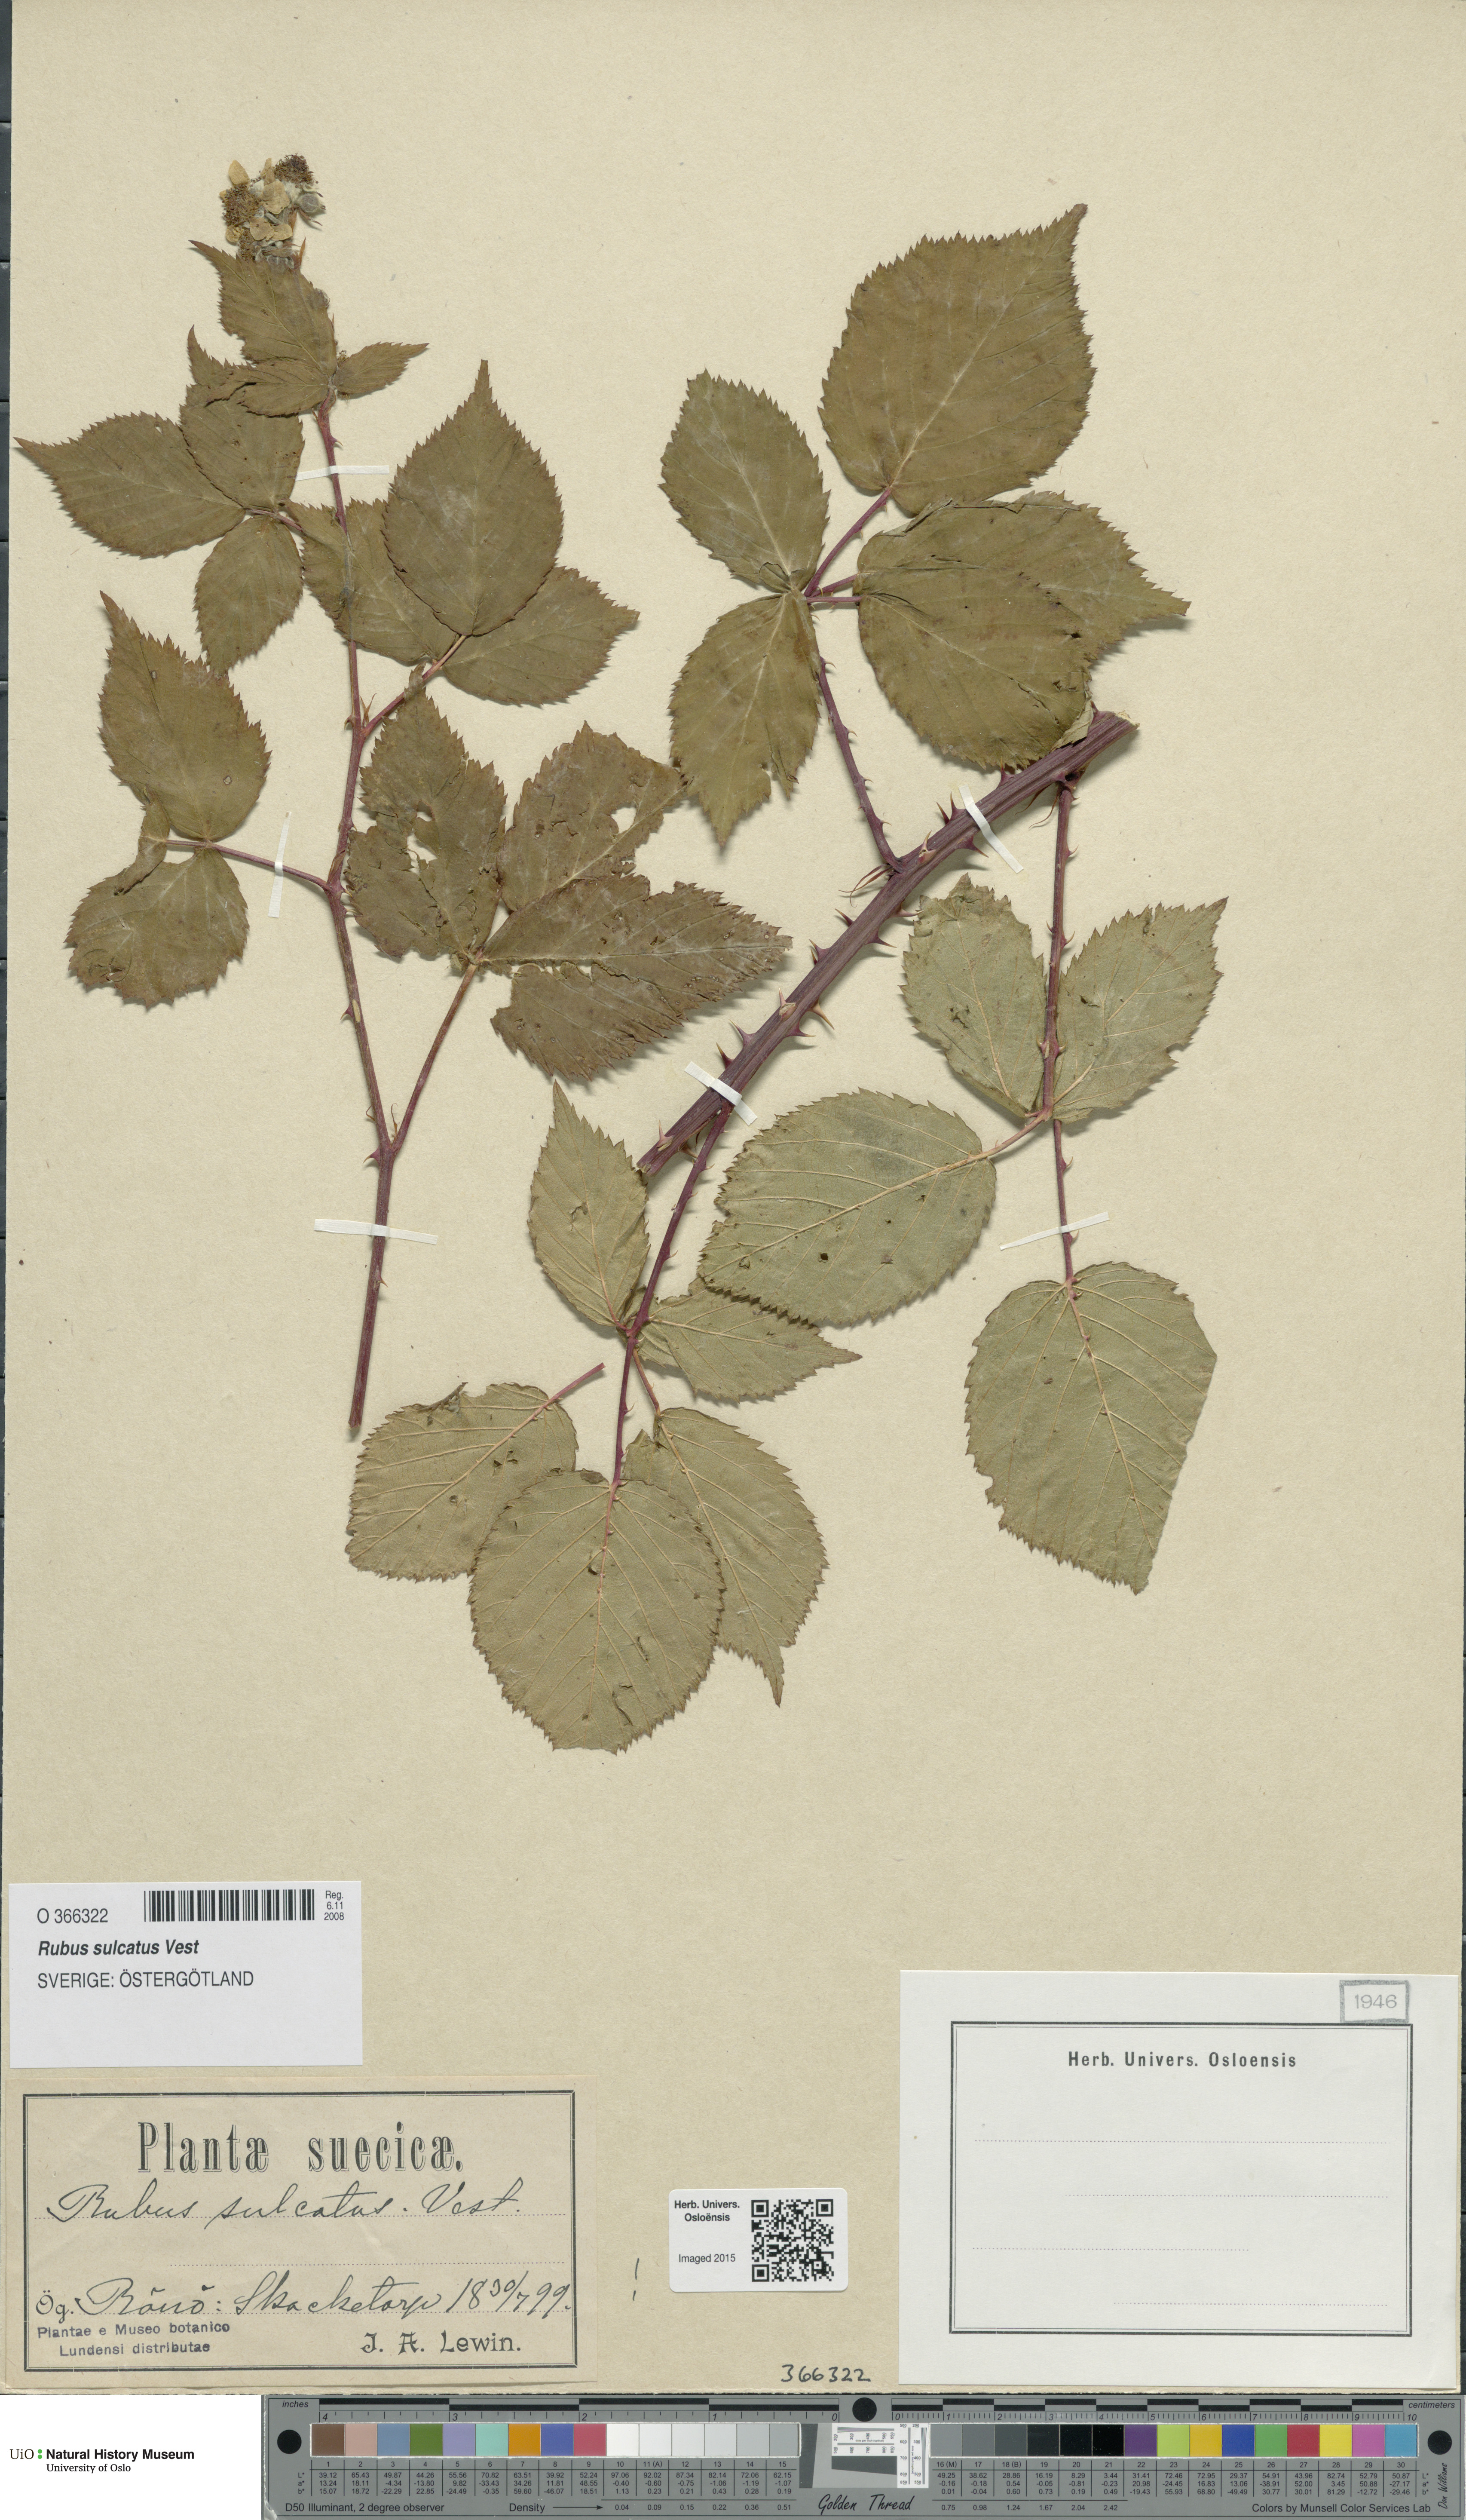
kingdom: Plantae
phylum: Tracheophyta
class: Magnoliopsida
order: Rosales
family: Rosaceae
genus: Rubus
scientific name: Rubus sulcatus
